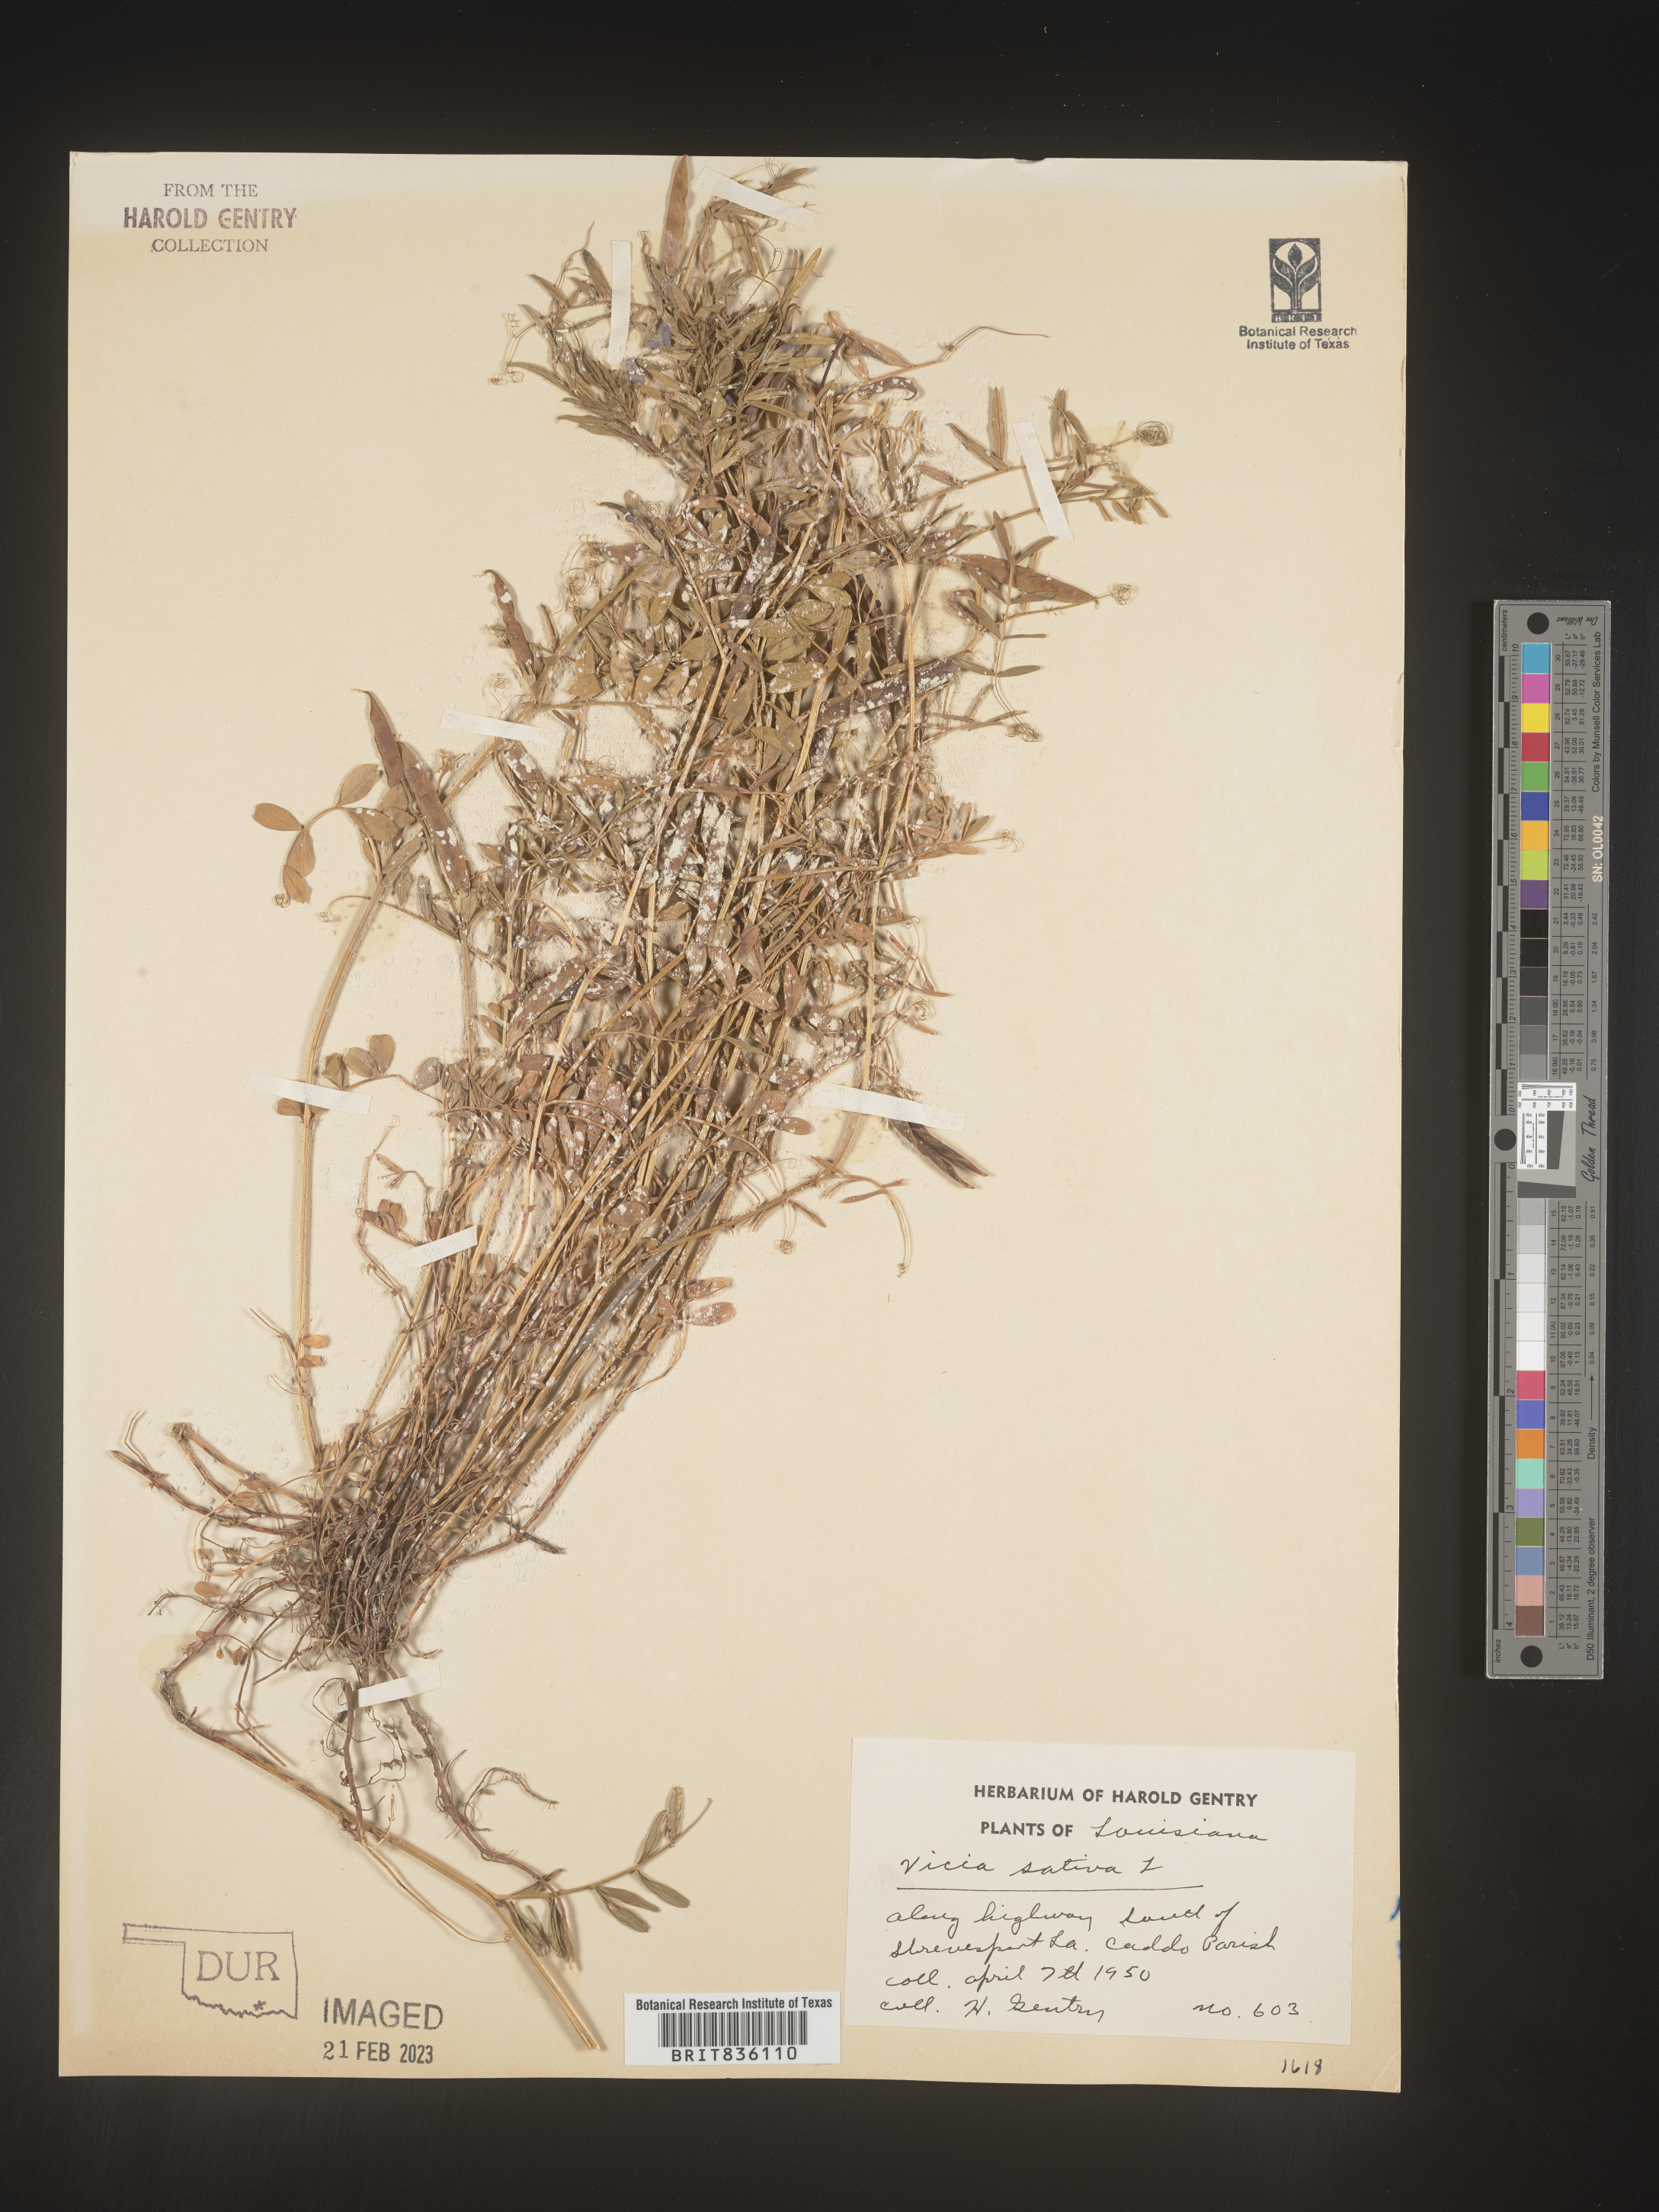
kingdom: Plantae
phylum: Tracheophyta
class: Magnoliopsida
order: Fabales
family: Fabaceae
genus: Vicia
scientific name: Vicia sativa
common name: Garden vetch
